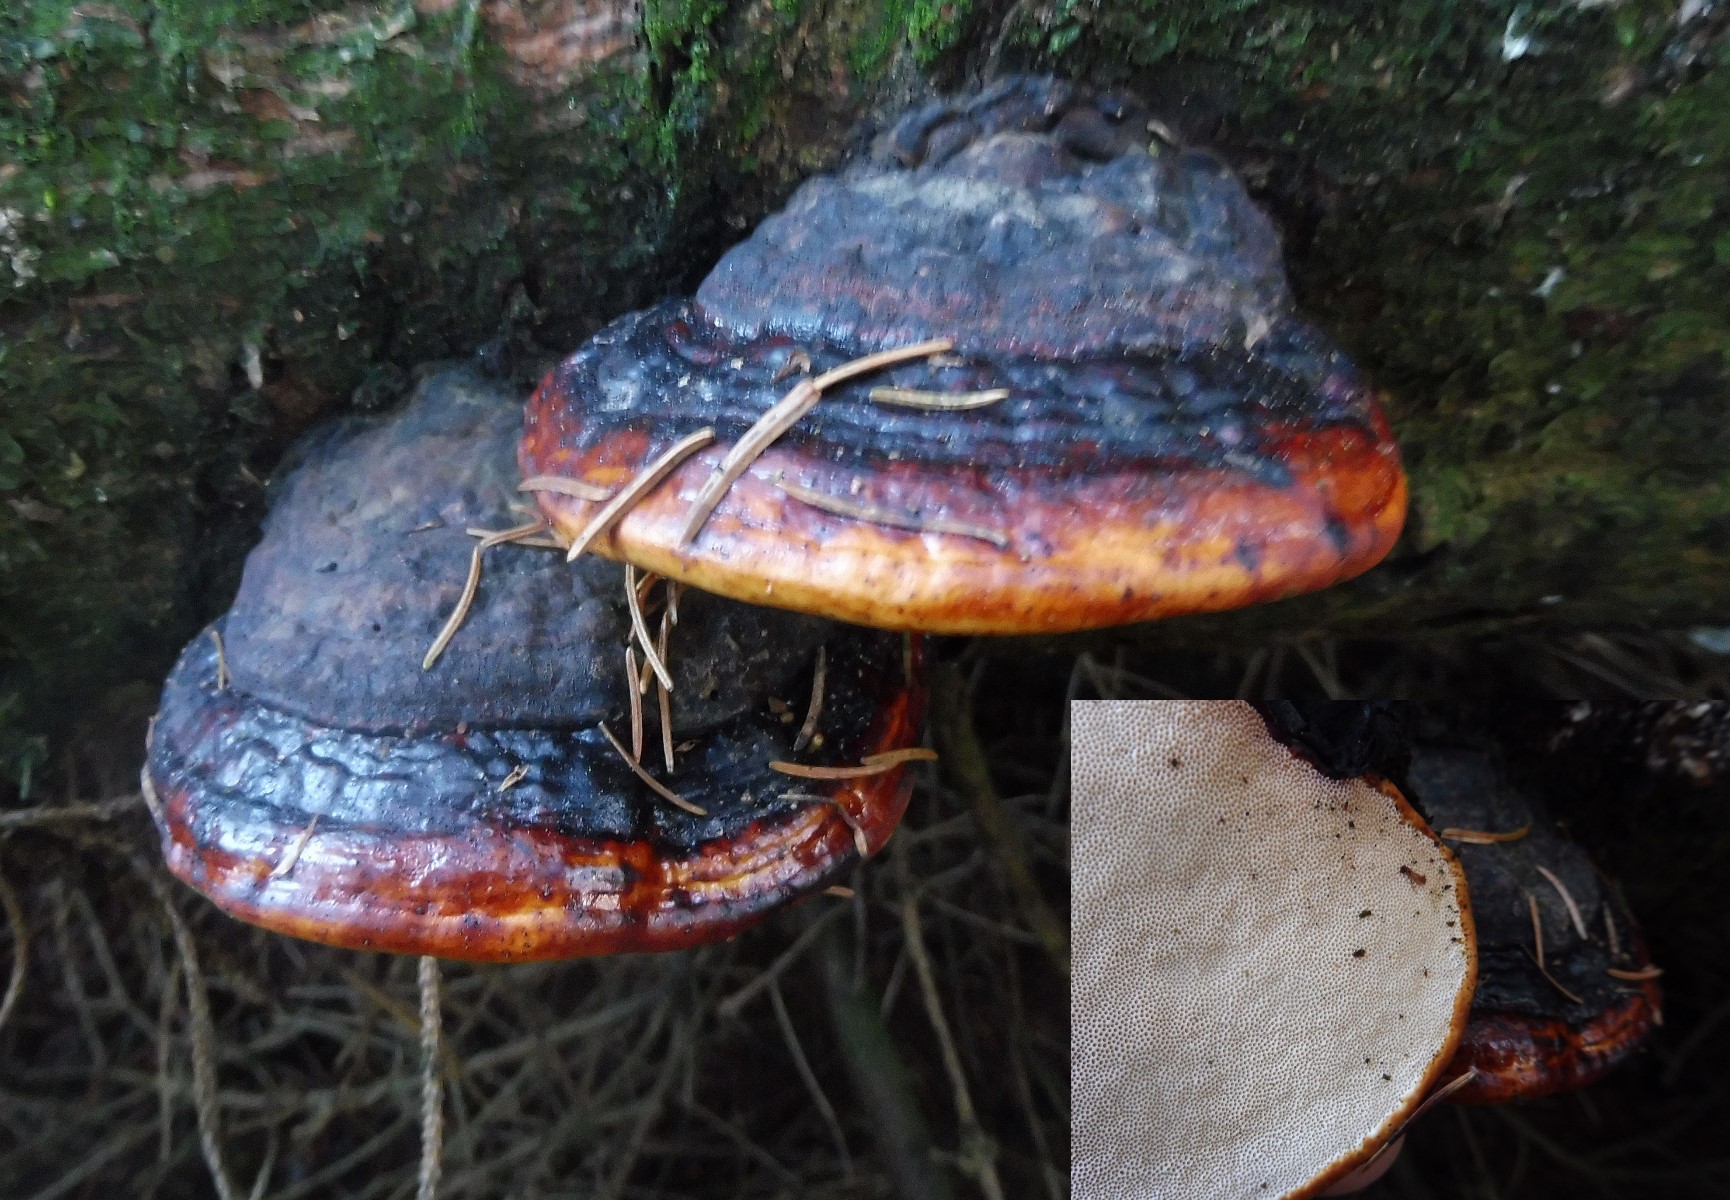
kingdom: Fungi
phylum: Basidiomycota
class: Agaricomycetes
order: Polyporales
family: Fomitopsidaceae
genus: Fomitopsis
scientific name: Fomitopsis pinicola
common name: randbæltet hovporesvamp
